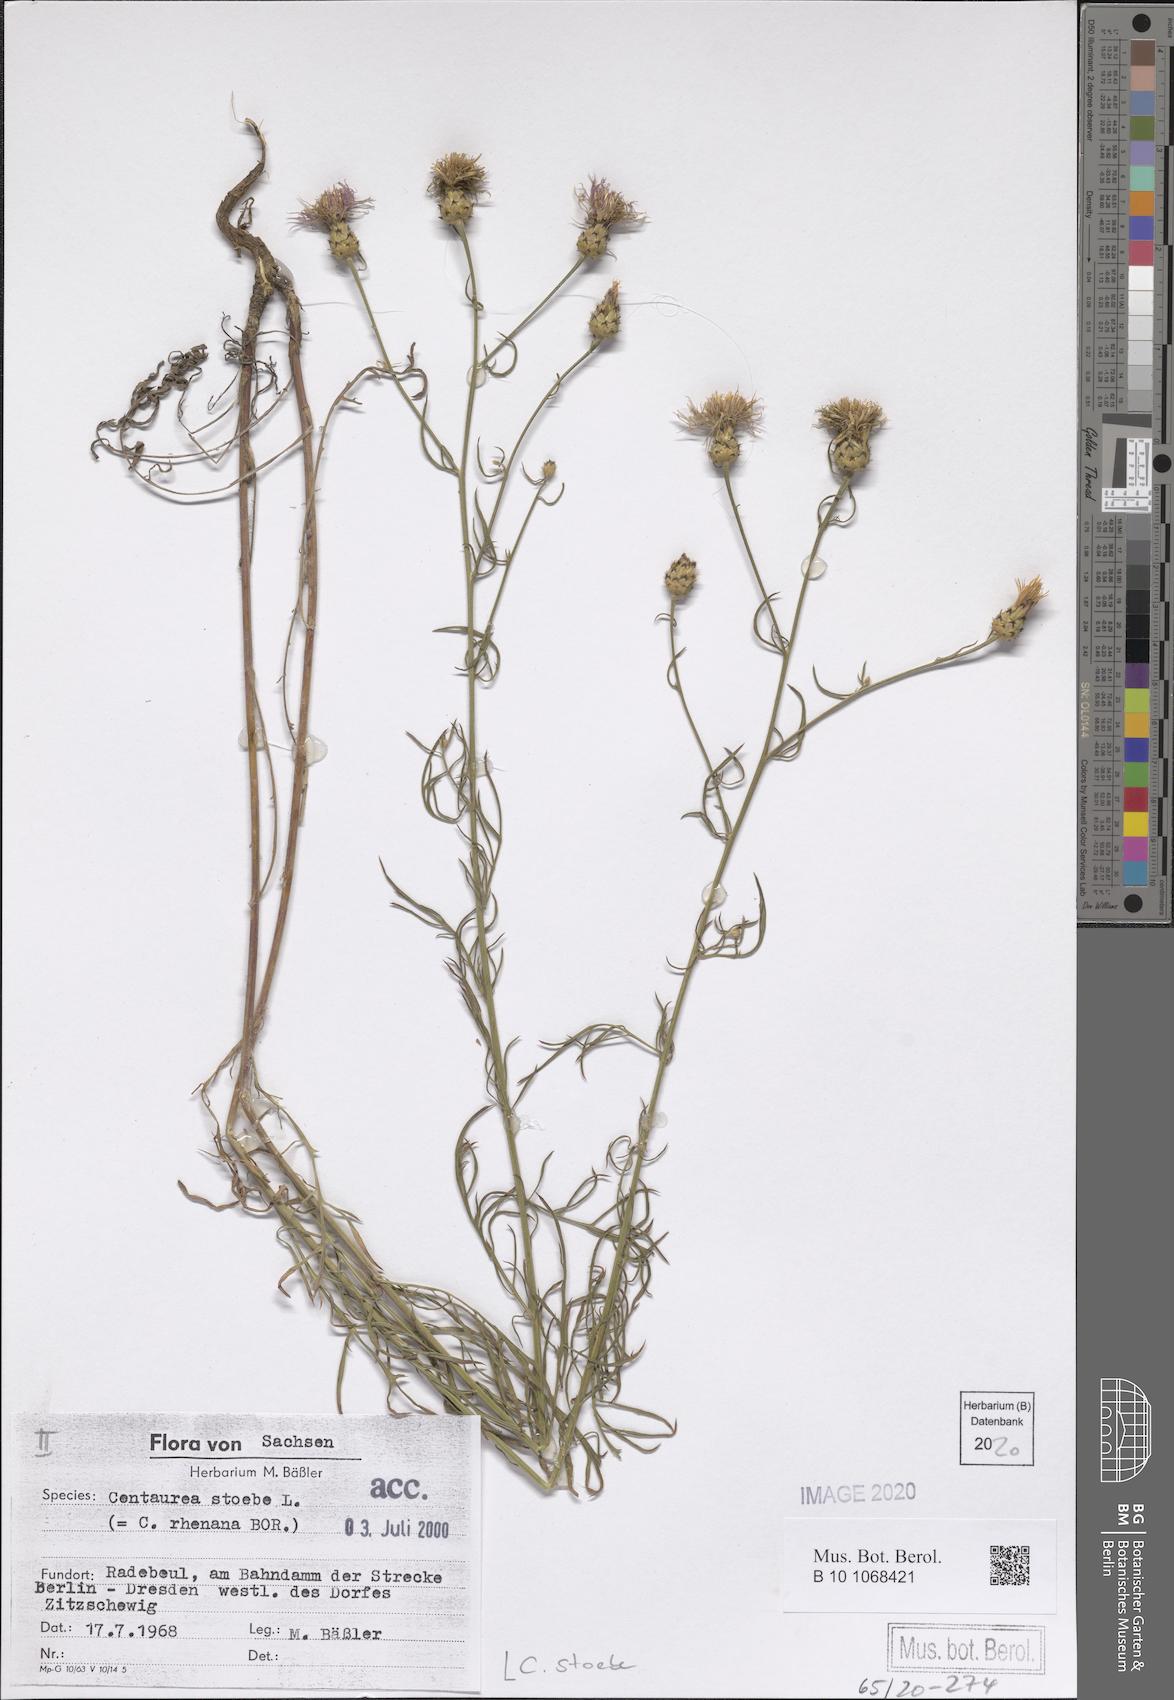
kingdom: Plantae
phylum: Tracheophyta
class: Magnoliopsida
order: Asterales
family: Asteraceae
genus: Centaurea
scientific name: Centaurea stoebe
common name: Spotted knapweed
